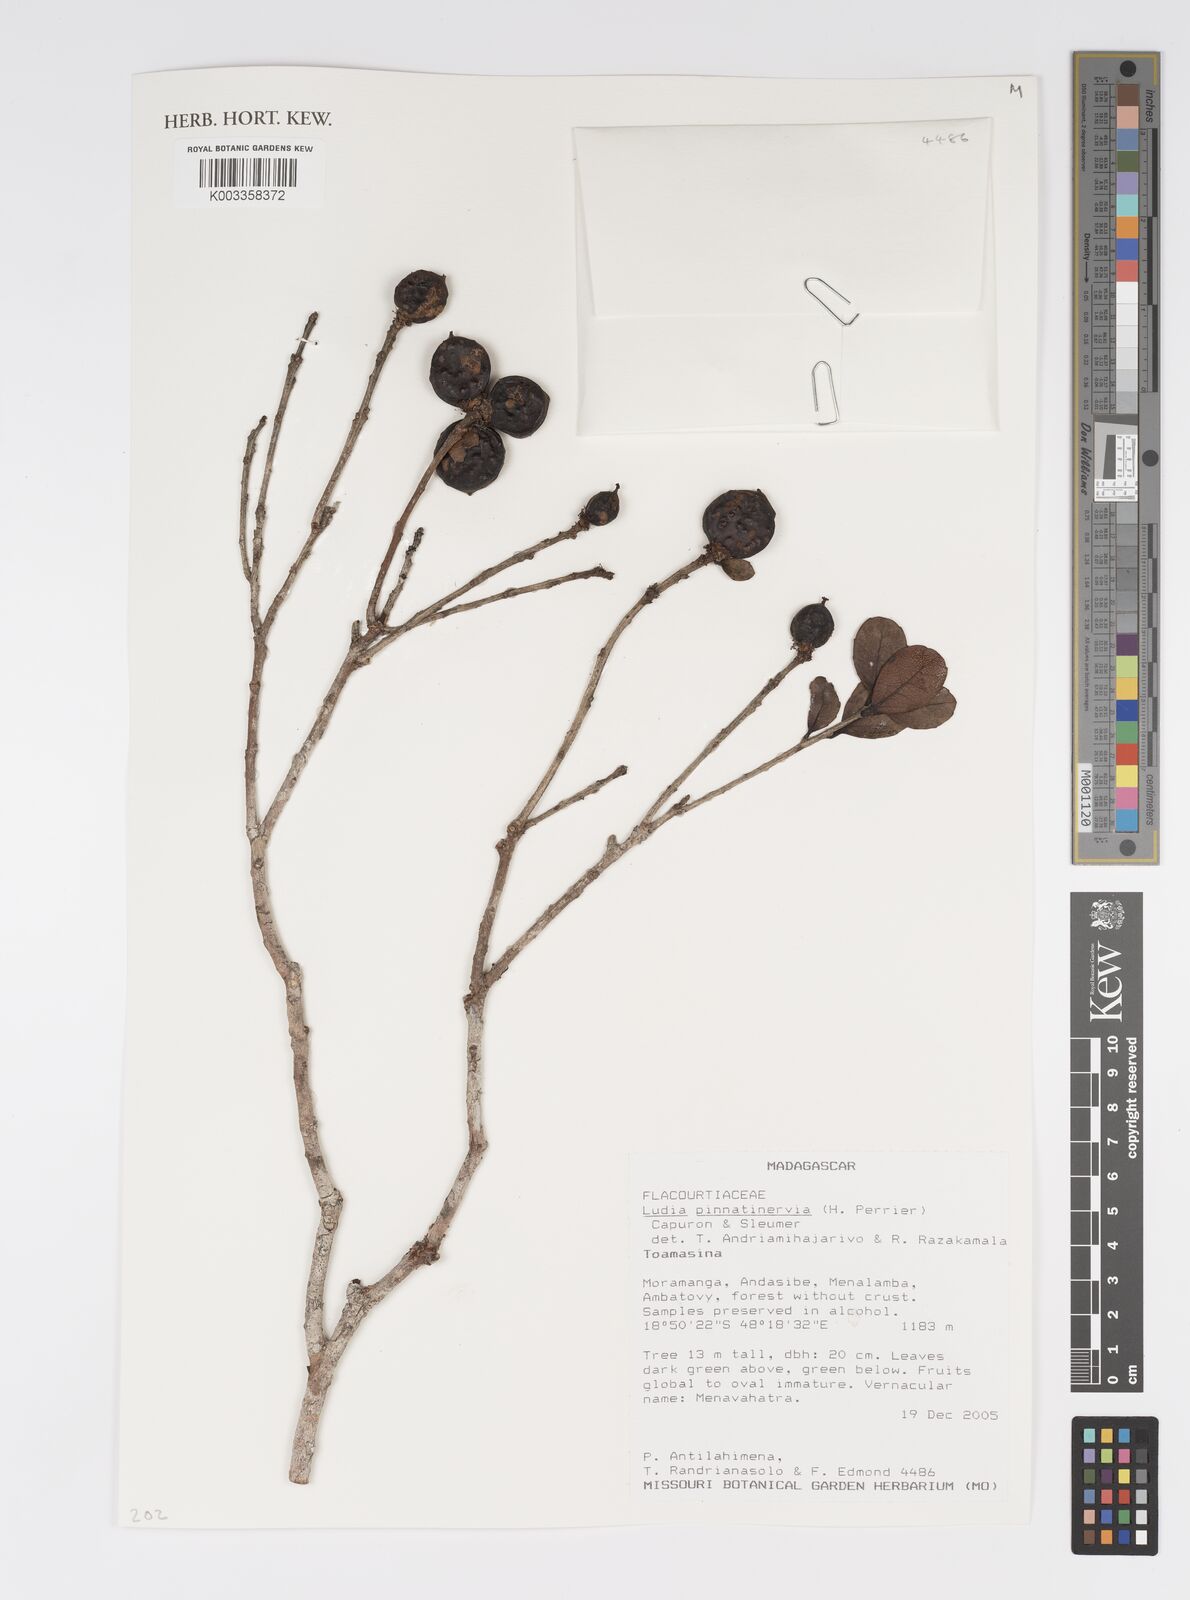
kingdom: Plantae
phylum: Tracheophyta
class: Magnoliopsida
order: Malpighiales
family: Salicaceae
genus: Ludia
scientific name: Ludia pinnatinervia
